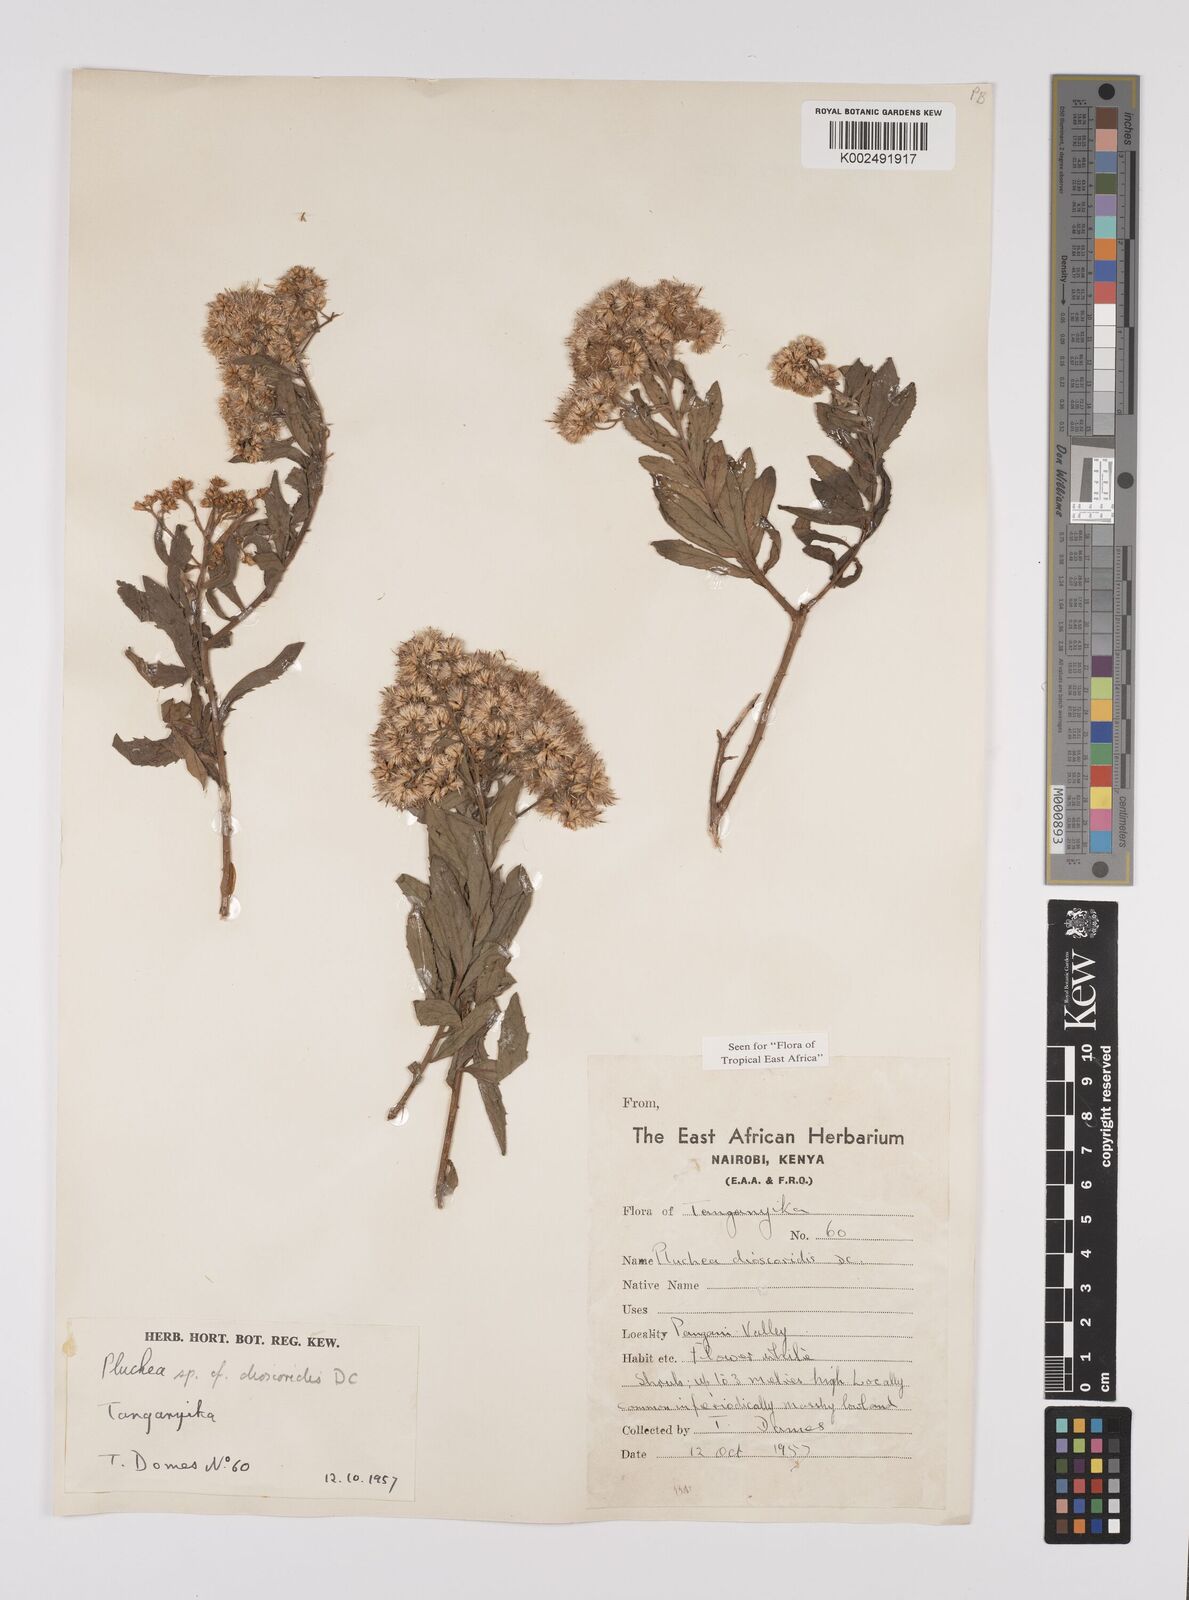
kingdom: Plantae
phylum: Tracheophyta
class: Magnoliopsida
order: Asterales
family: Asteraceae
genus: Pluchea
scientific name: Pluchea dioscoridis
